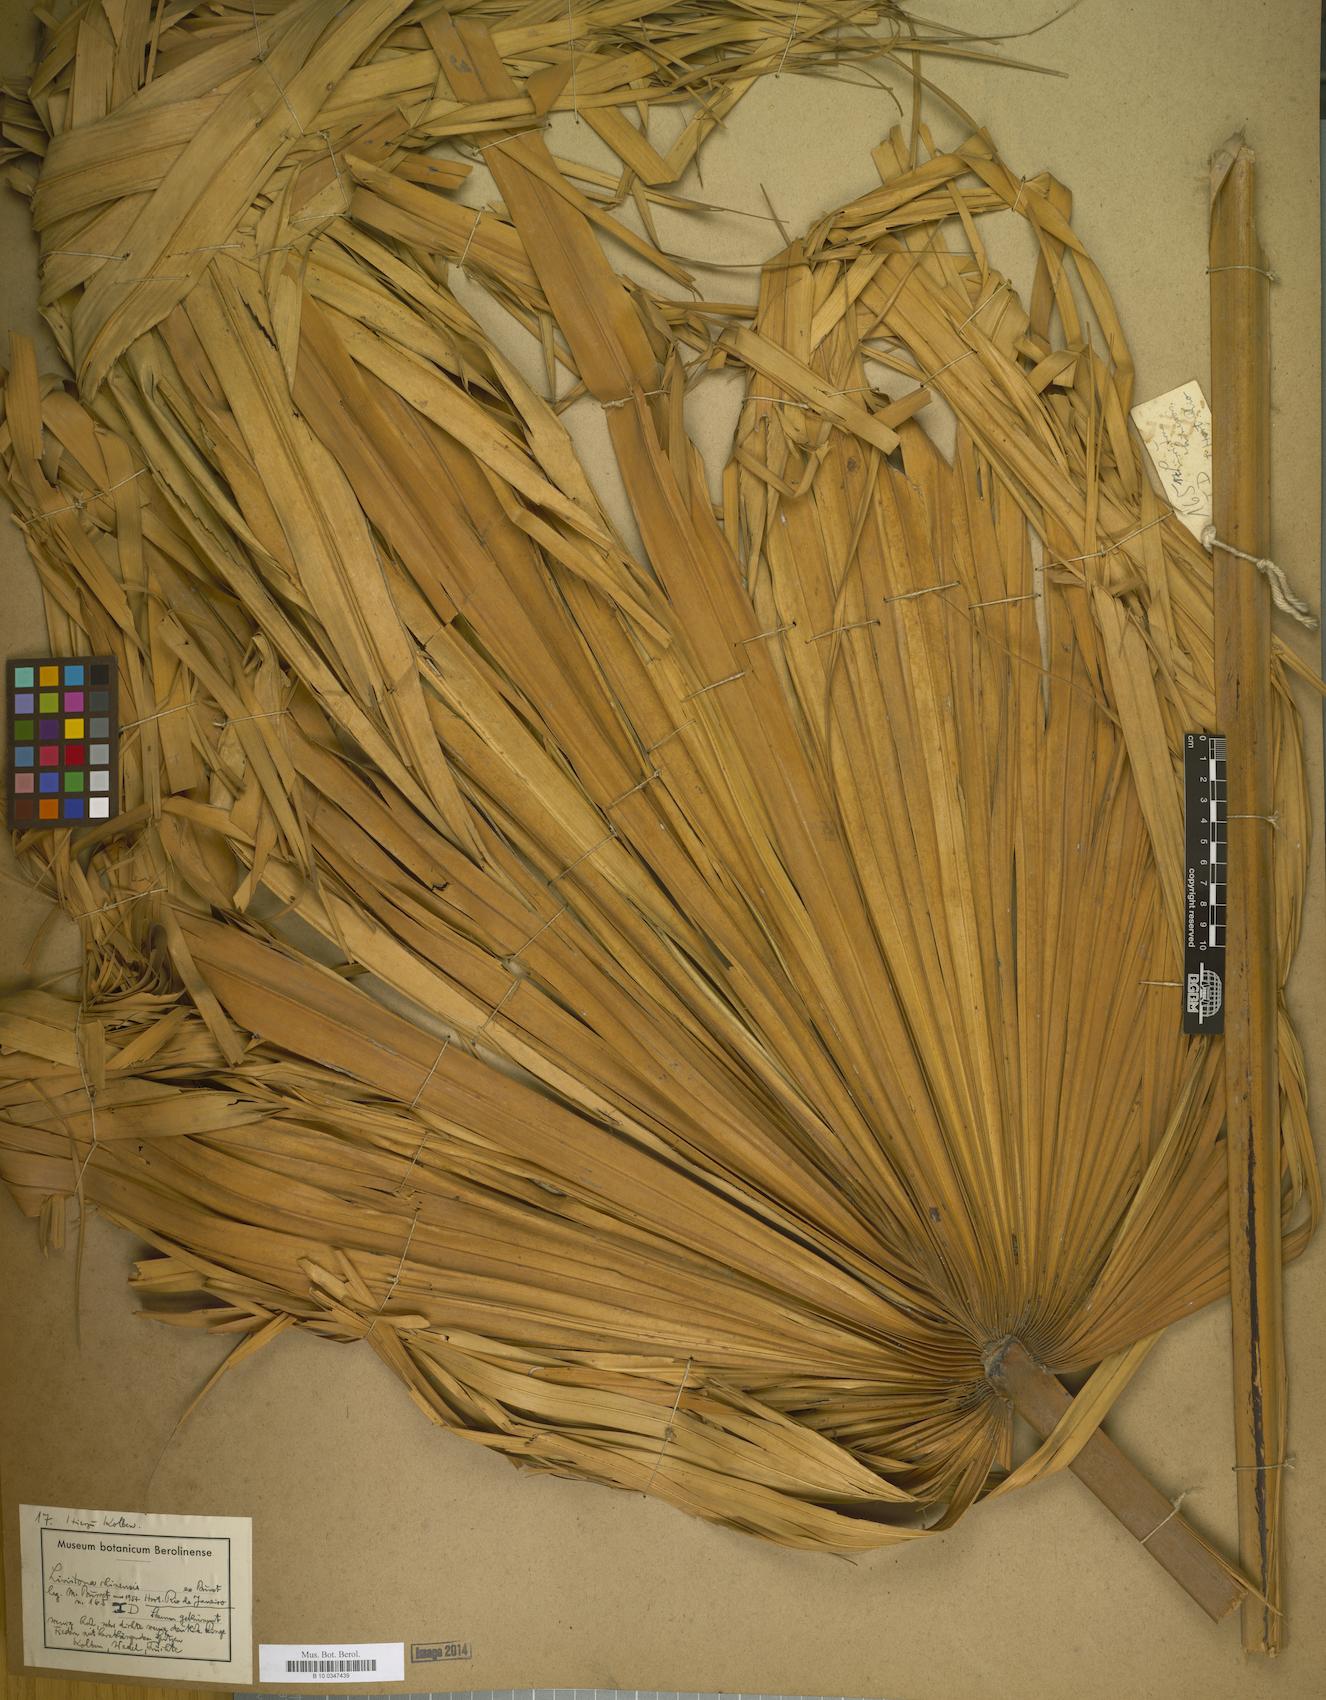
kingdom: Plantae
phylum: Tracheophyta
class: Liliopsida
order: Arecales
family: Arecaceae
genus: Livistona
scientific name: Livistona
